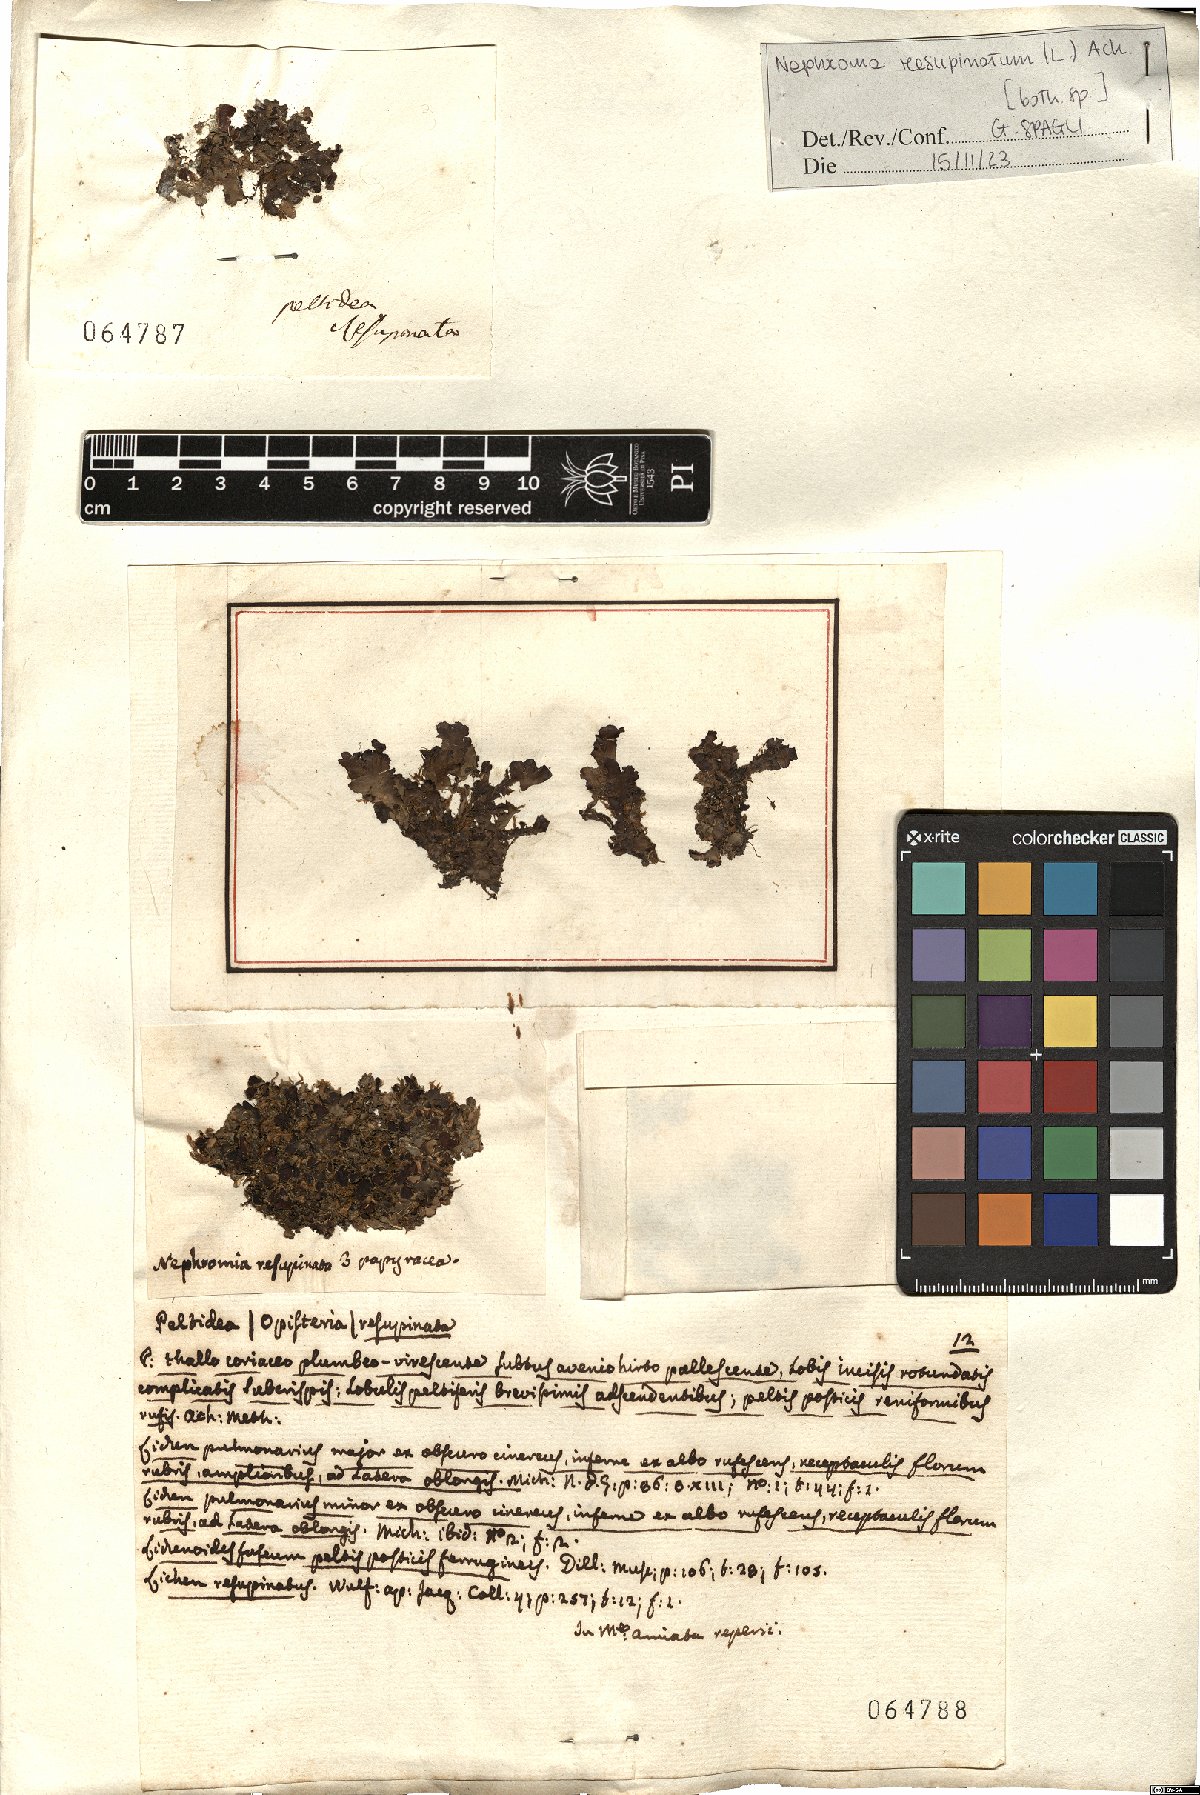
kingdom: Fungi
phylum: Ascomycota
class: Lecanoromycetes
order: Peltigerales
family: Nephromataceae
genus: Nephroma
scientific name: Nephroma resupinatum
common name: Pimpled kidney lichen
